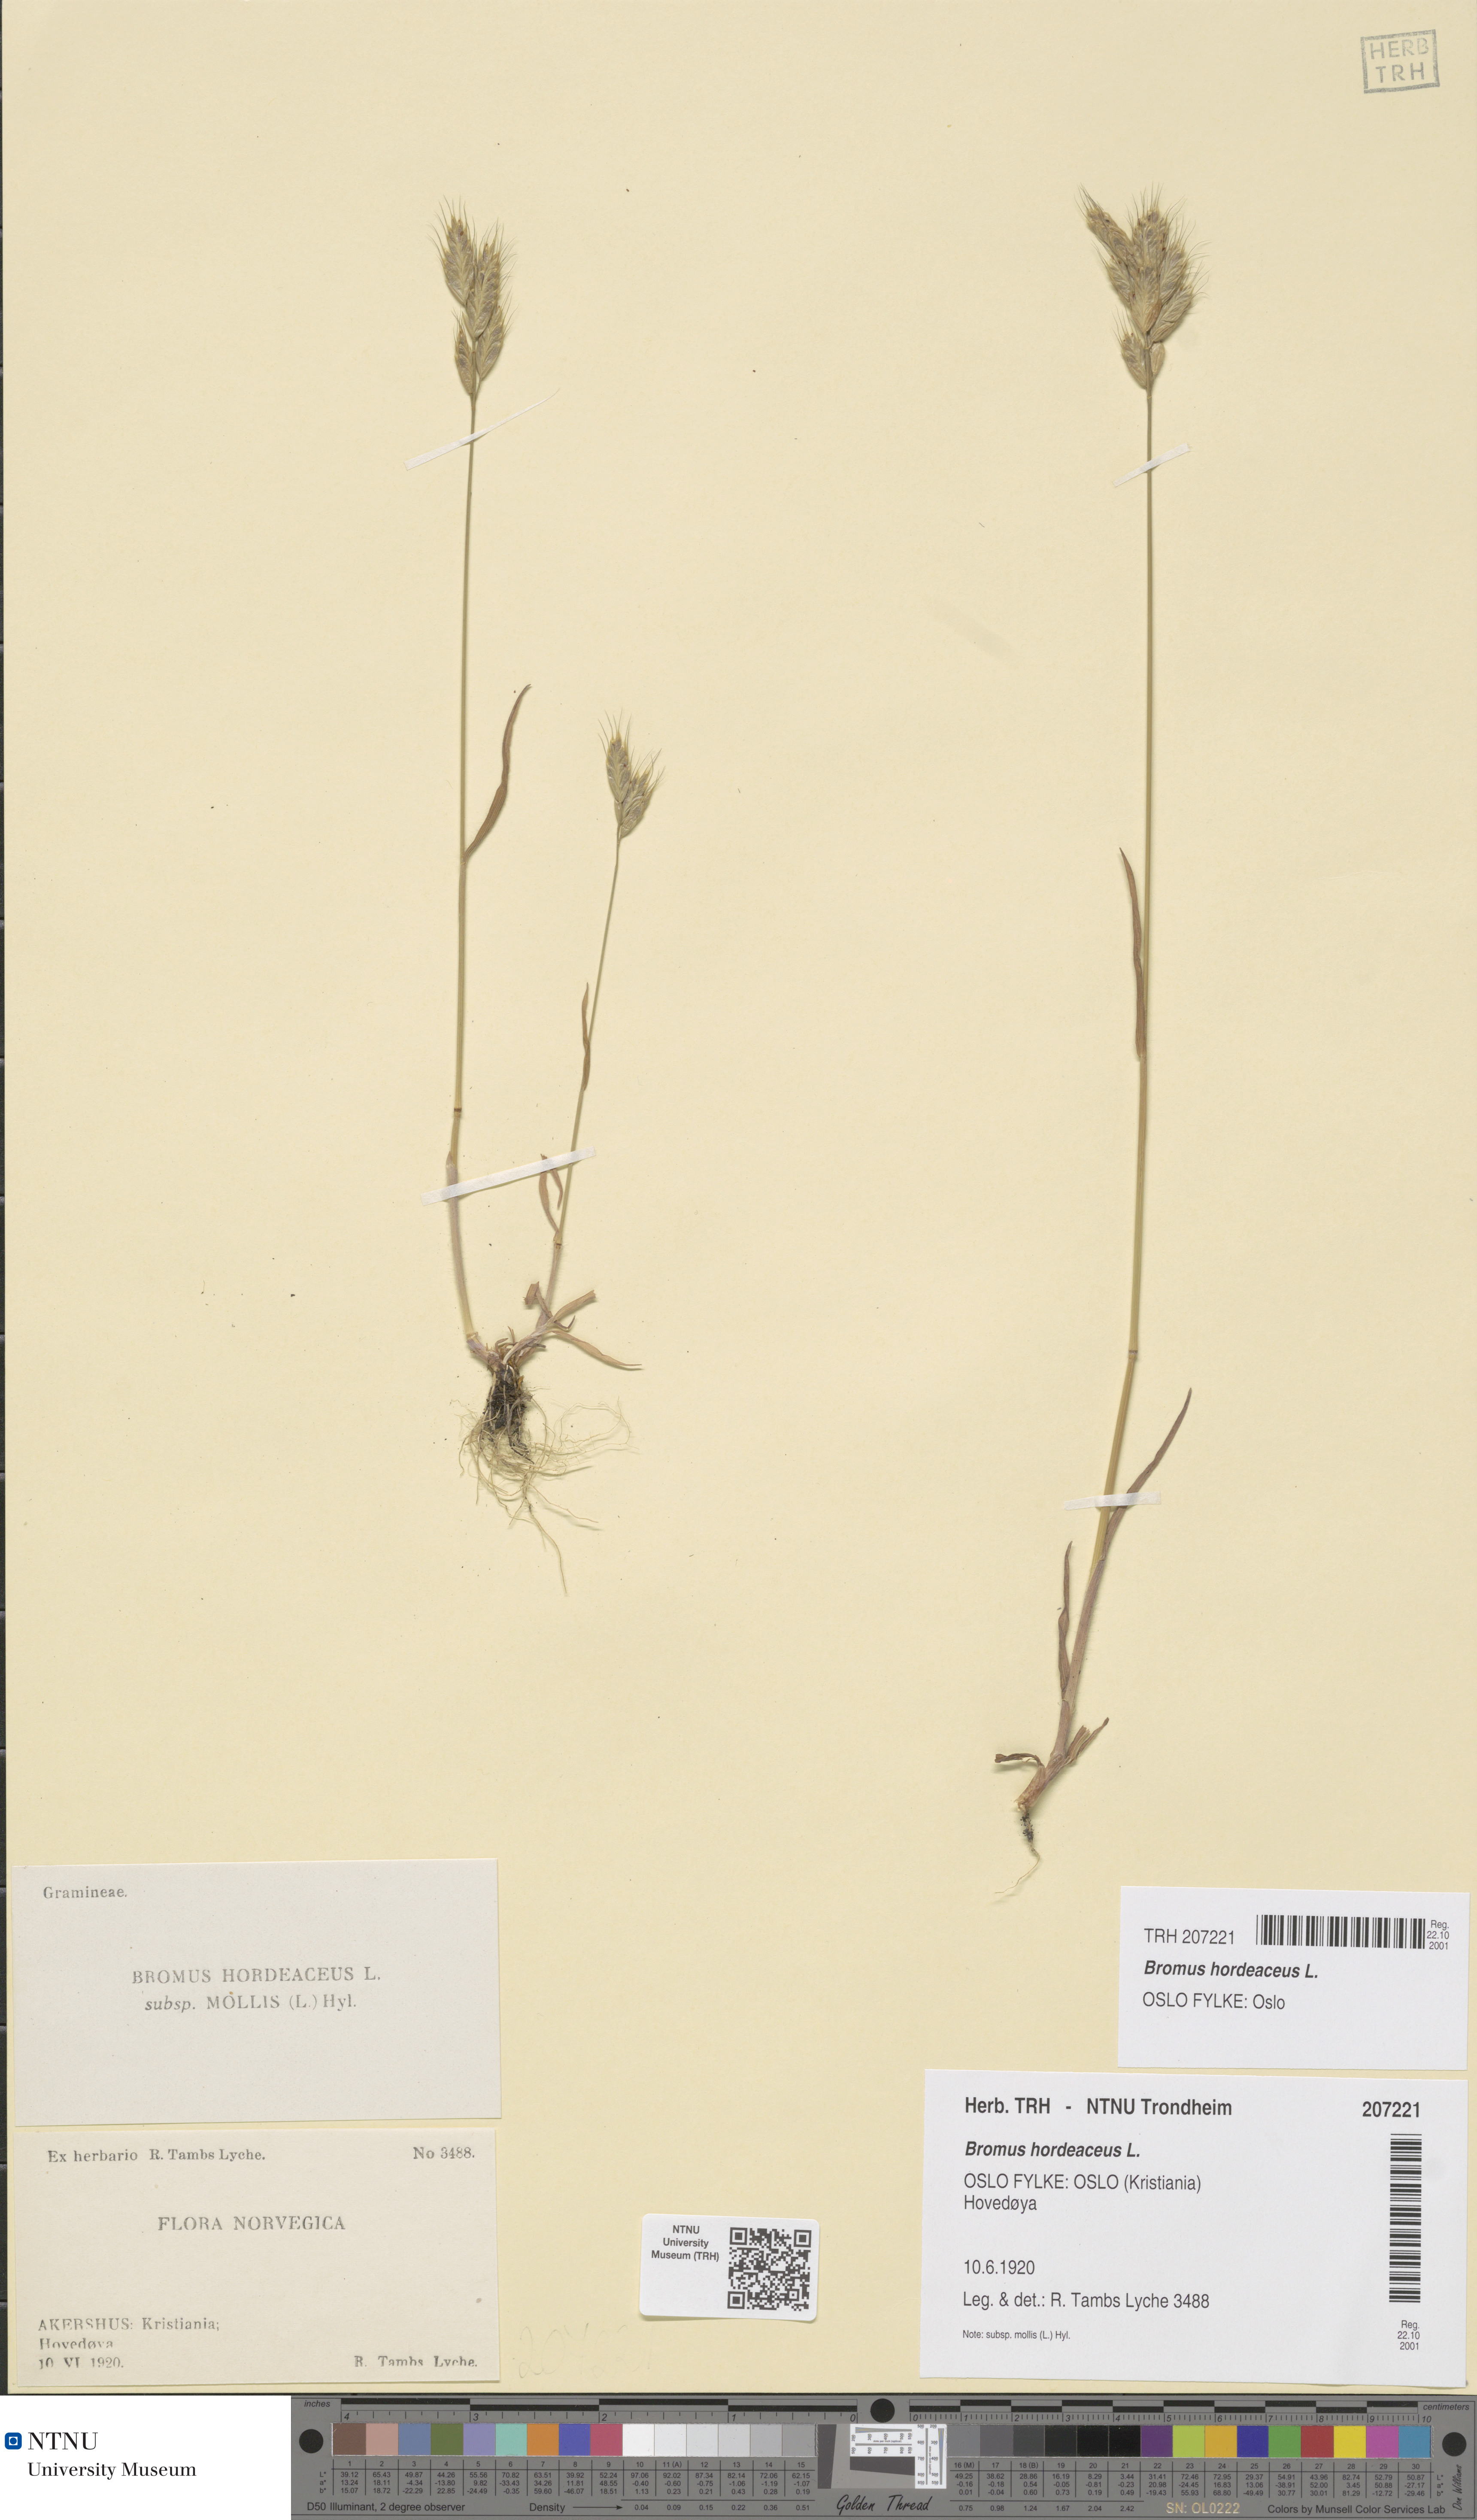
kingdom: Plantae
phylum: Tracheophyta
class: Liliopsida
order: Poales
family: Poaceae
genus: Bromus
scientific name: Bromus hordeaceus
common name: Soft brome
